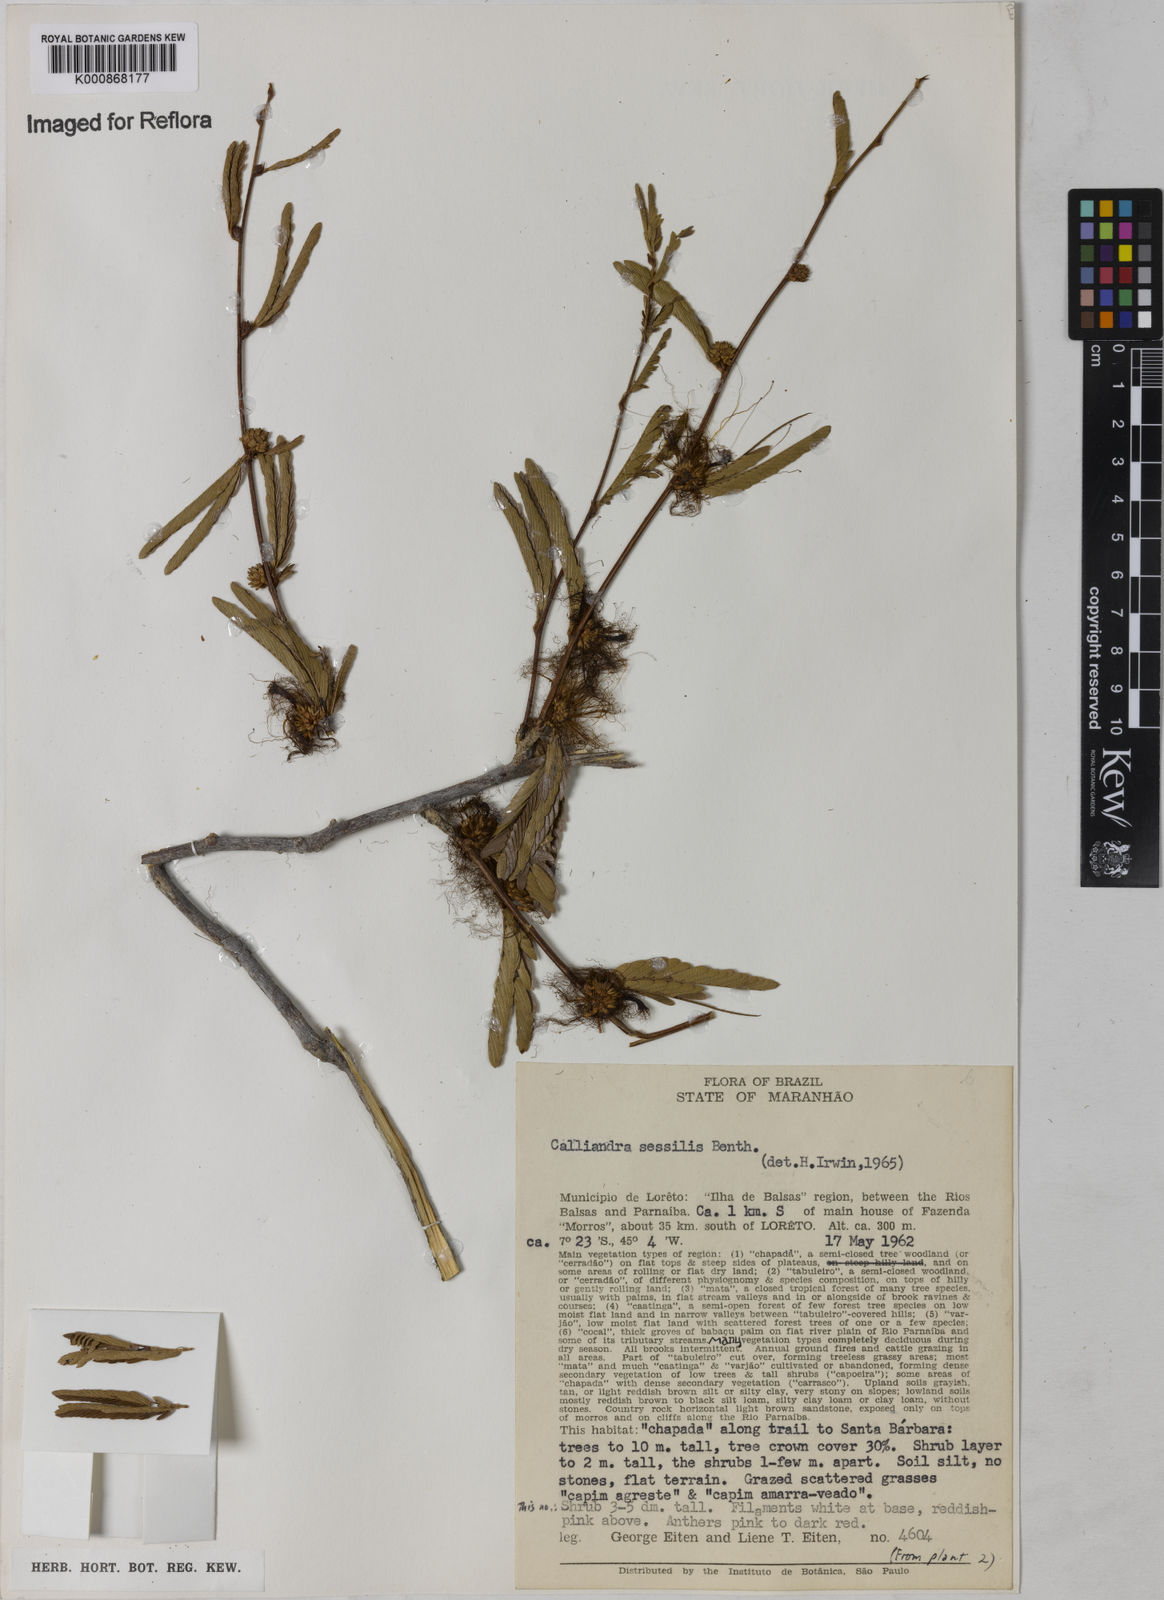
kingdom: Plantae
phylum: Tracheophyta
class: Magnoliopsida
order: Fabales
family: Fabaceae
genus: Calliandra
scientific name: Calliandra sessilis
